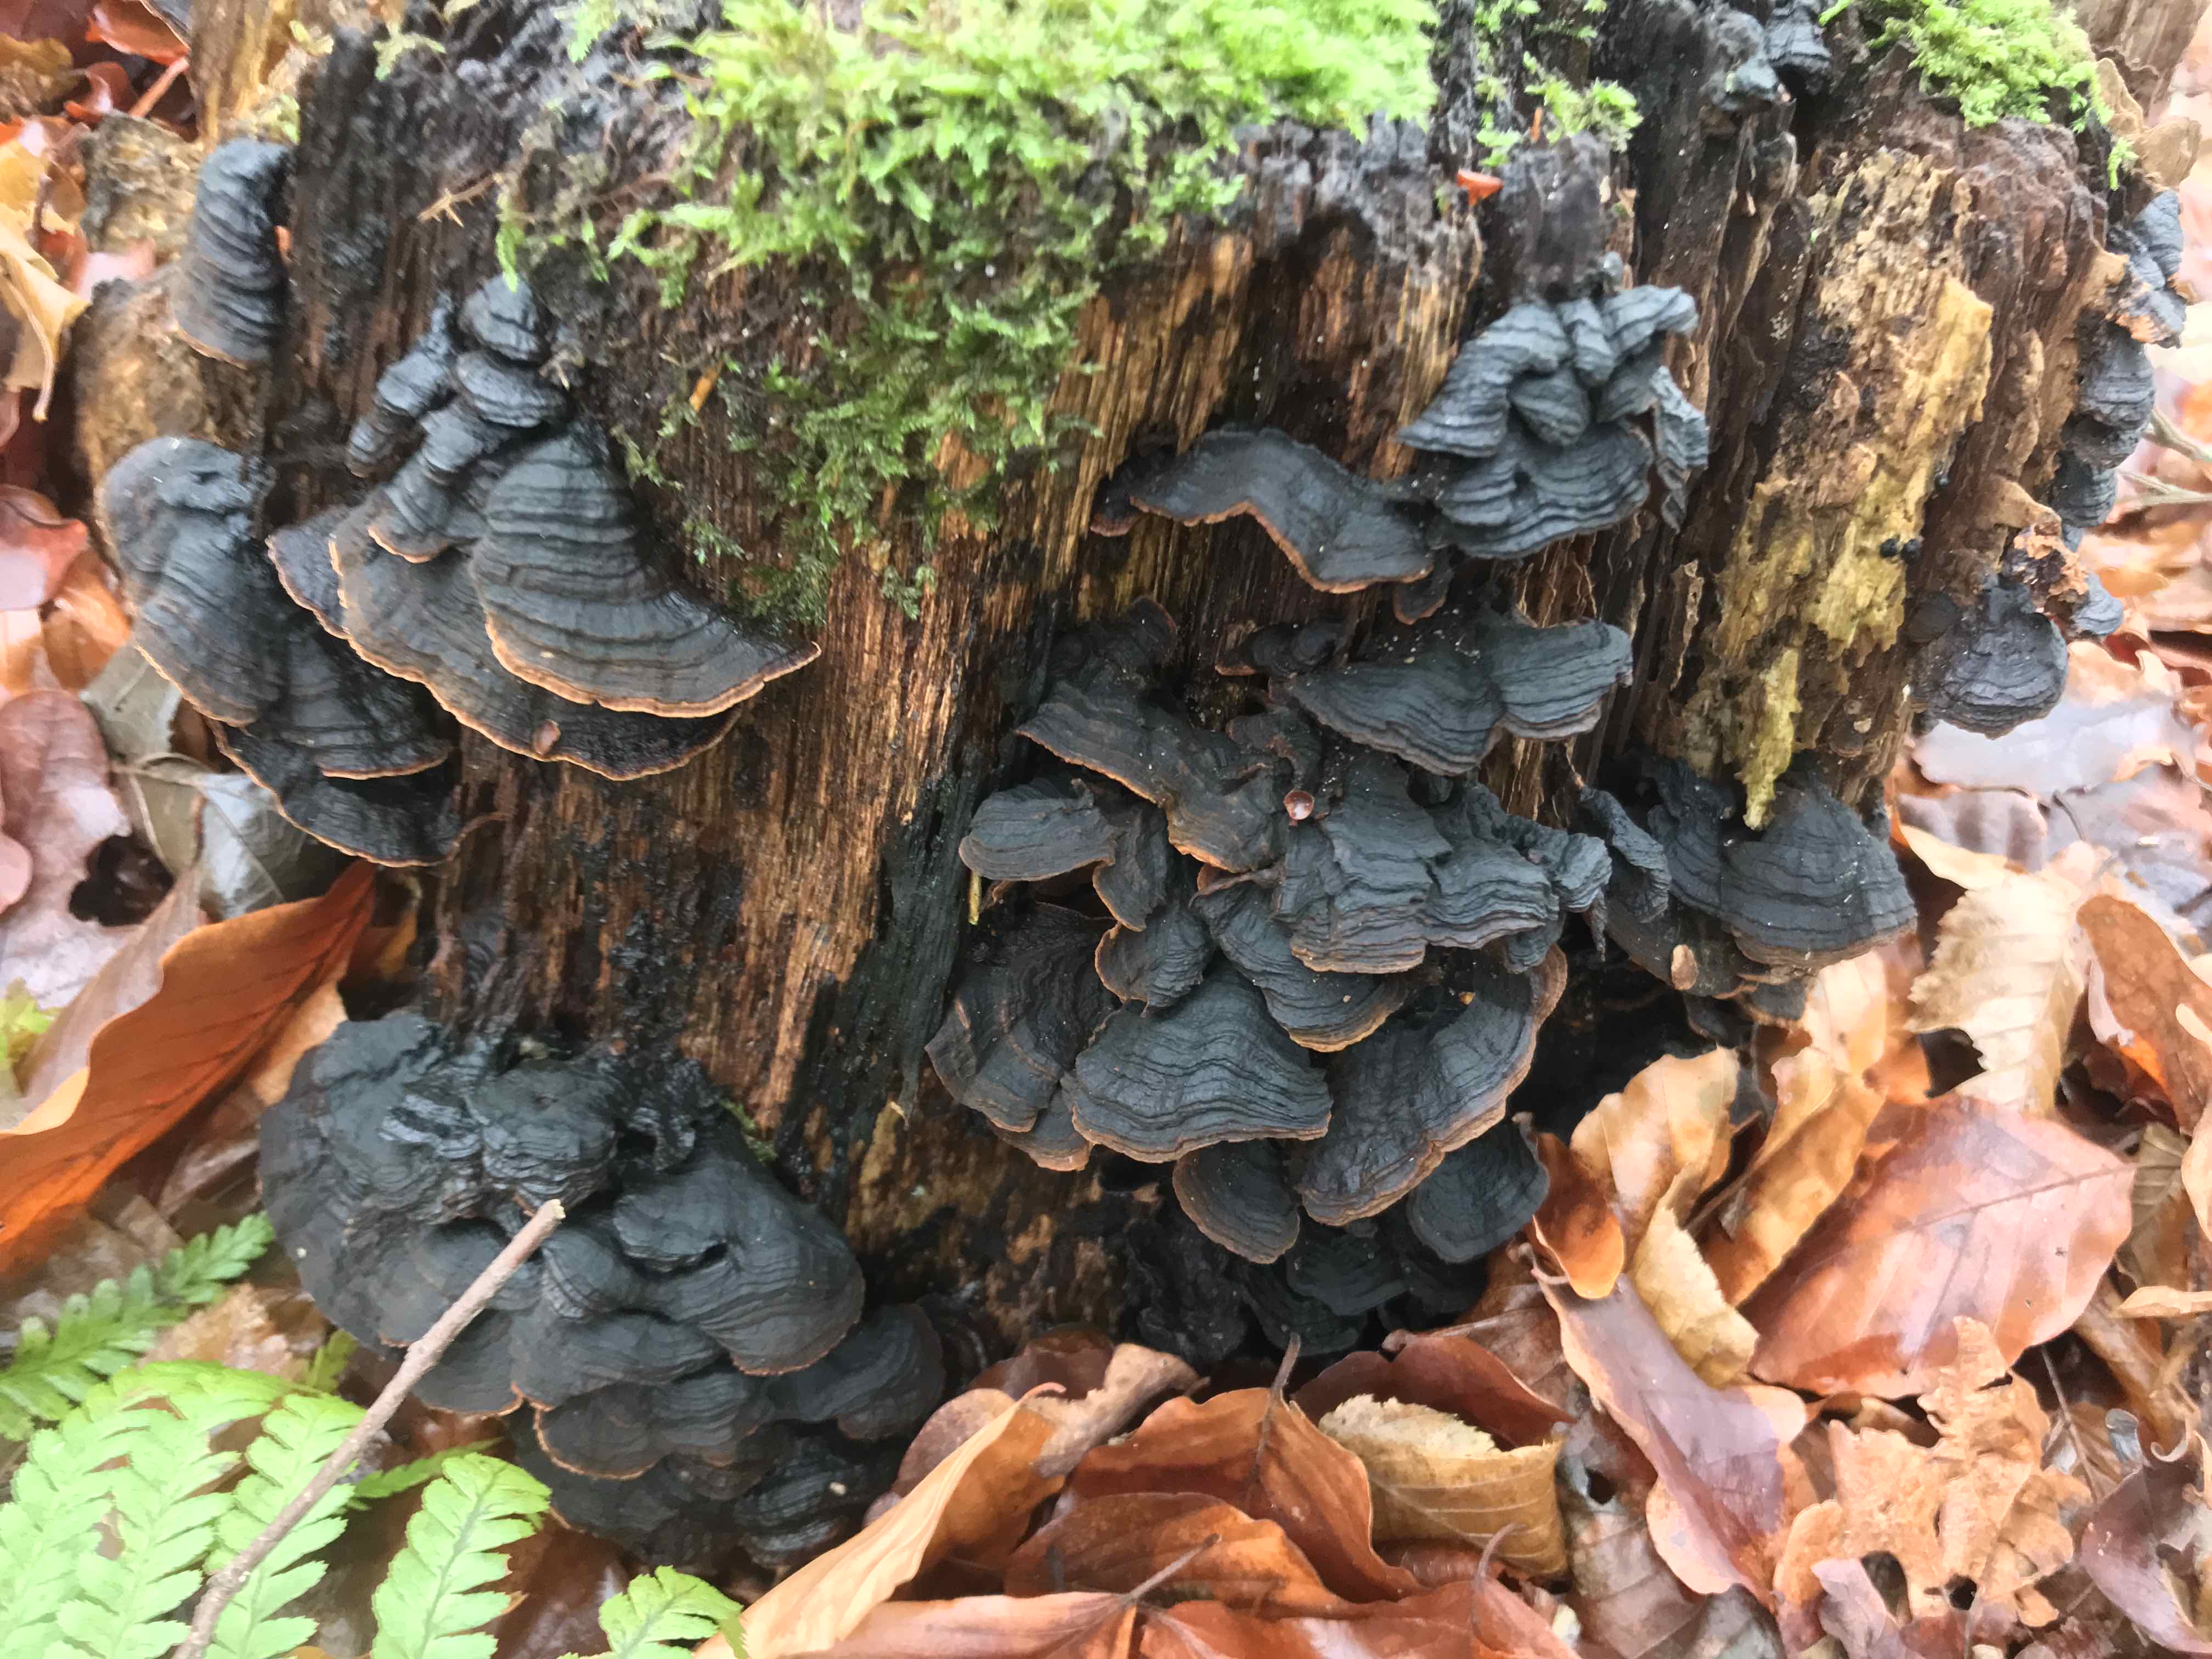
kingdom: Fungi
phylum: Basidiomycota
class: Agaricomycetes
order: Hymenochaetales
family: Hymenochaetaceae
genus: Hymenochaete
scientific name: Hymenochaete rubiginosa
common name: stiv ruslædersvamp
